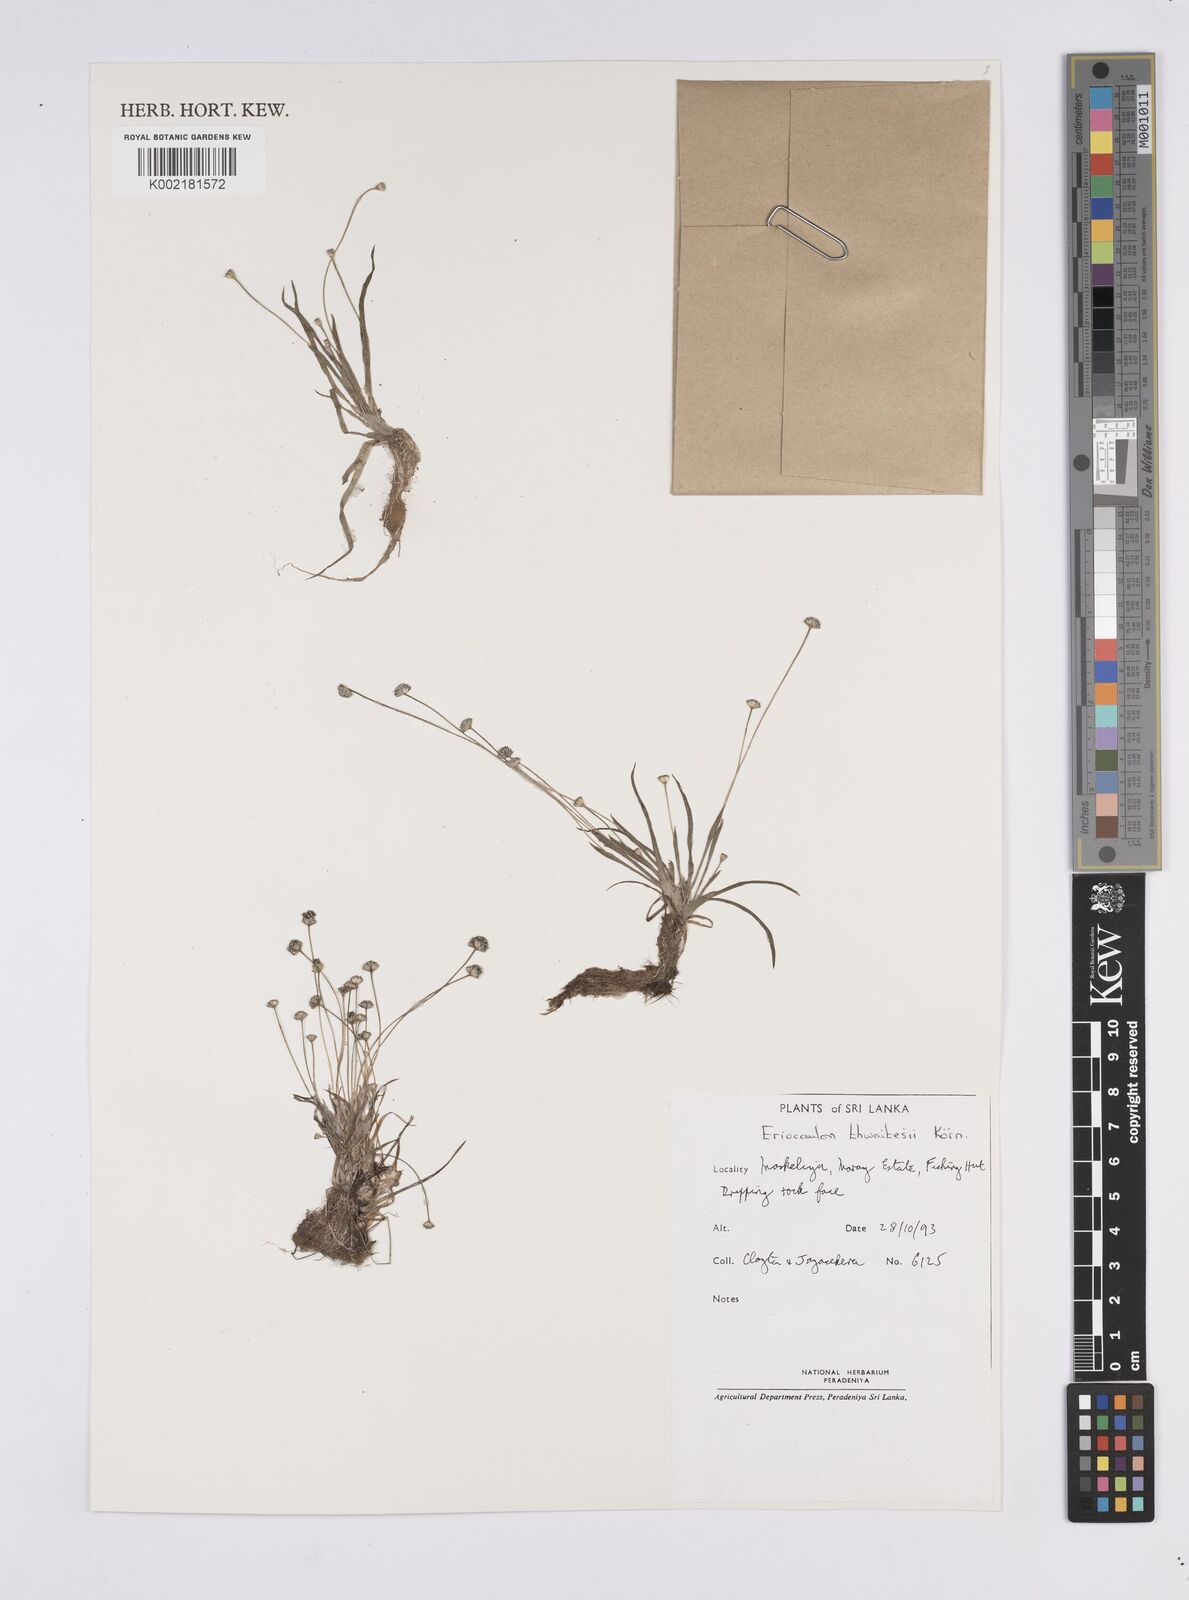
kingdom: Plantae
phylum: Tracheophyta
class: Liliopsida
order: Poales
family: Eriocaulaceae
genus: Eriocaulon
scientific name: Eriocaulon thwaitesii
